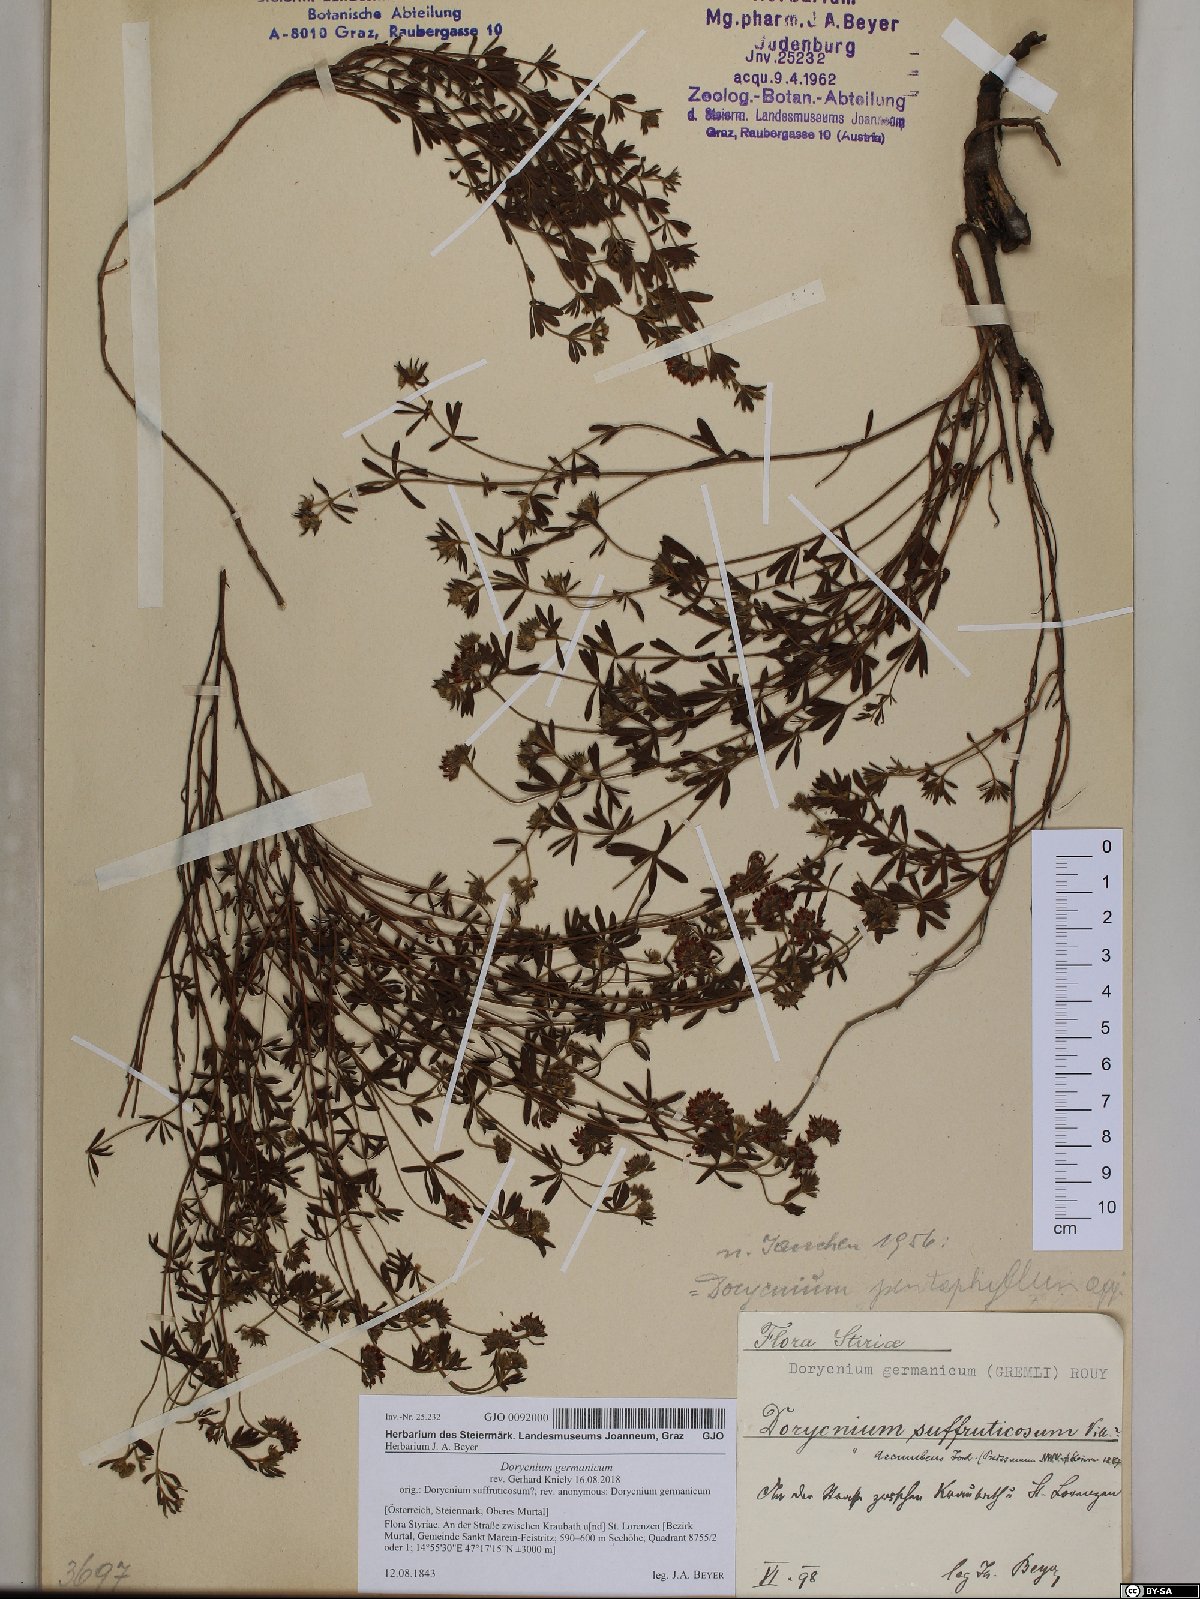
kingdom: Plantae
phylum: Tracheophyta
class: Magnoliopsida
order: Fabales
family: Fabaceae
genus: Lotus
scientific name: Lotus germanicus
